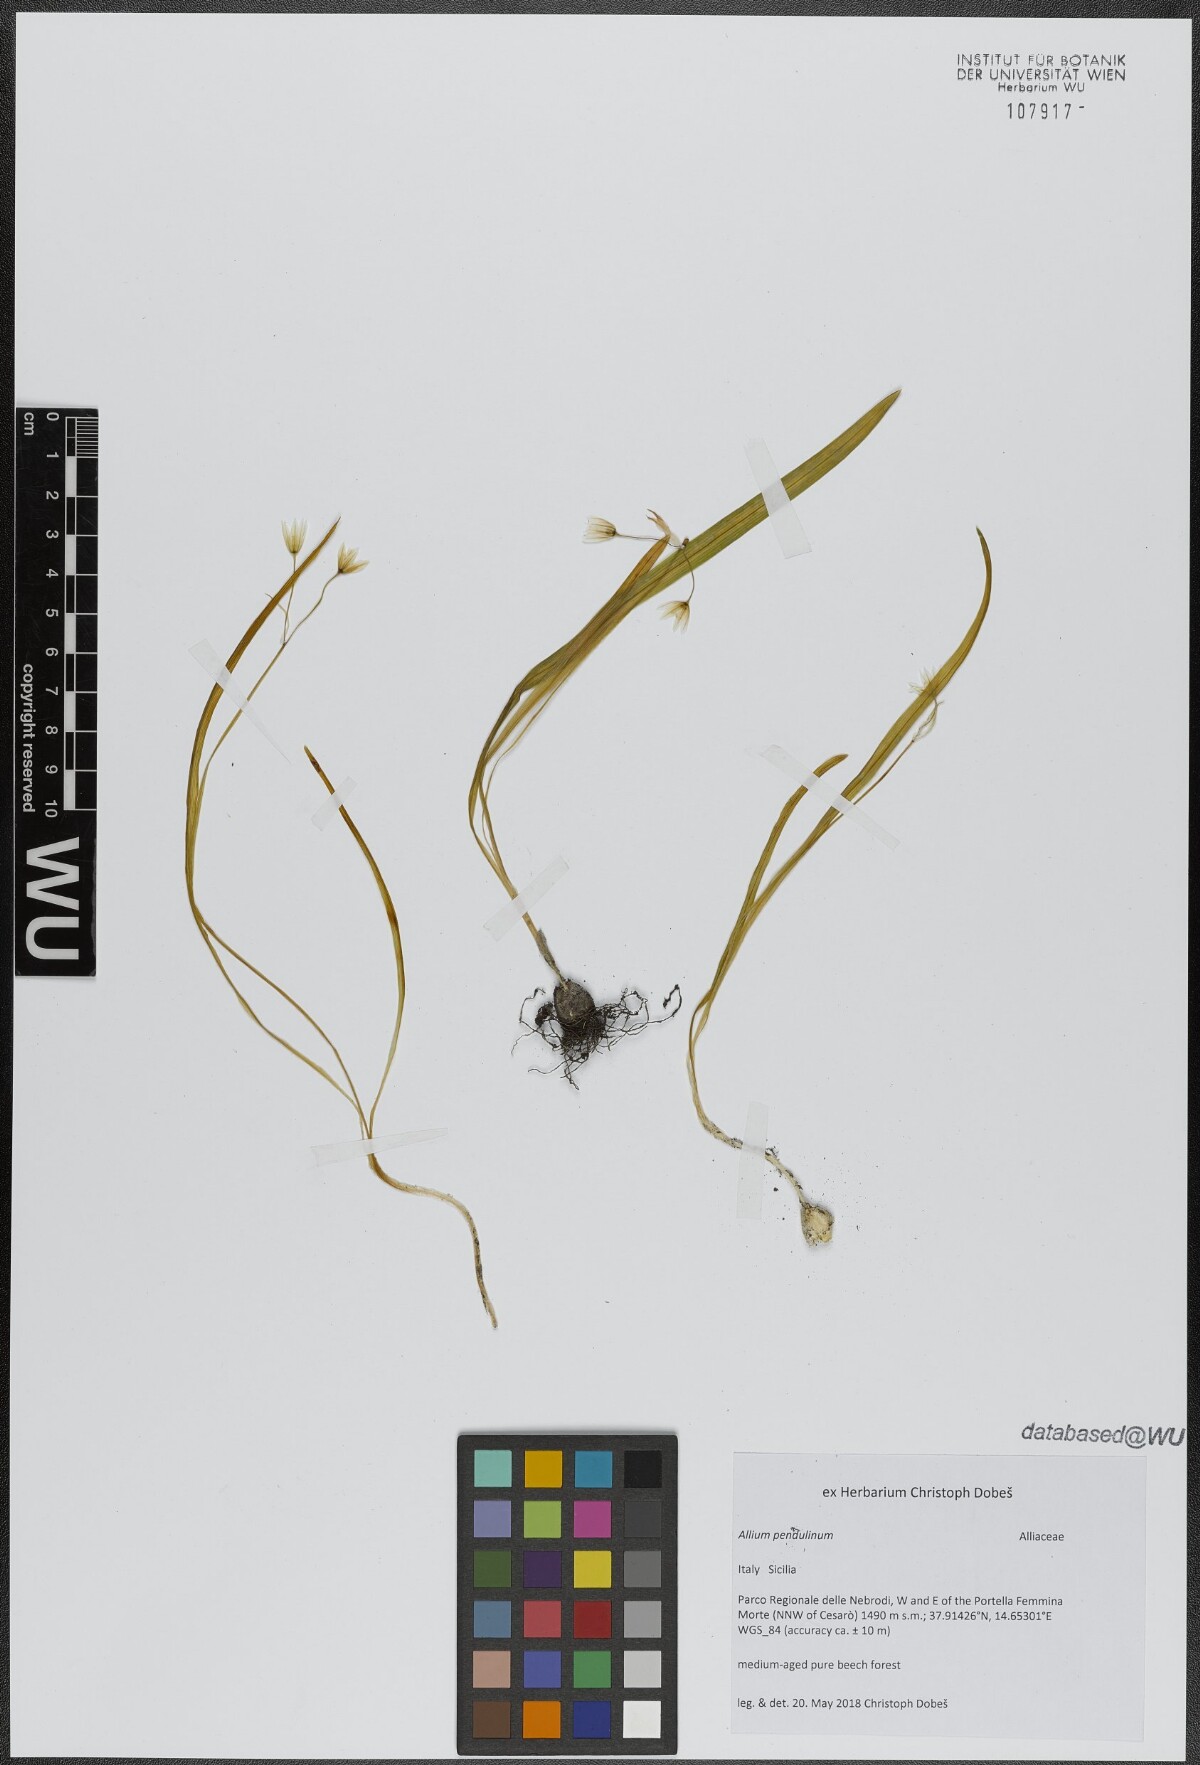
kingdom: Plantae
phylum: Tracheophyta
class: Liliopsida
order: Asparagales
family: Amaryllidaceae
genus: Allium
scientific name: Allium pendulinum
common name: Italian garlic
